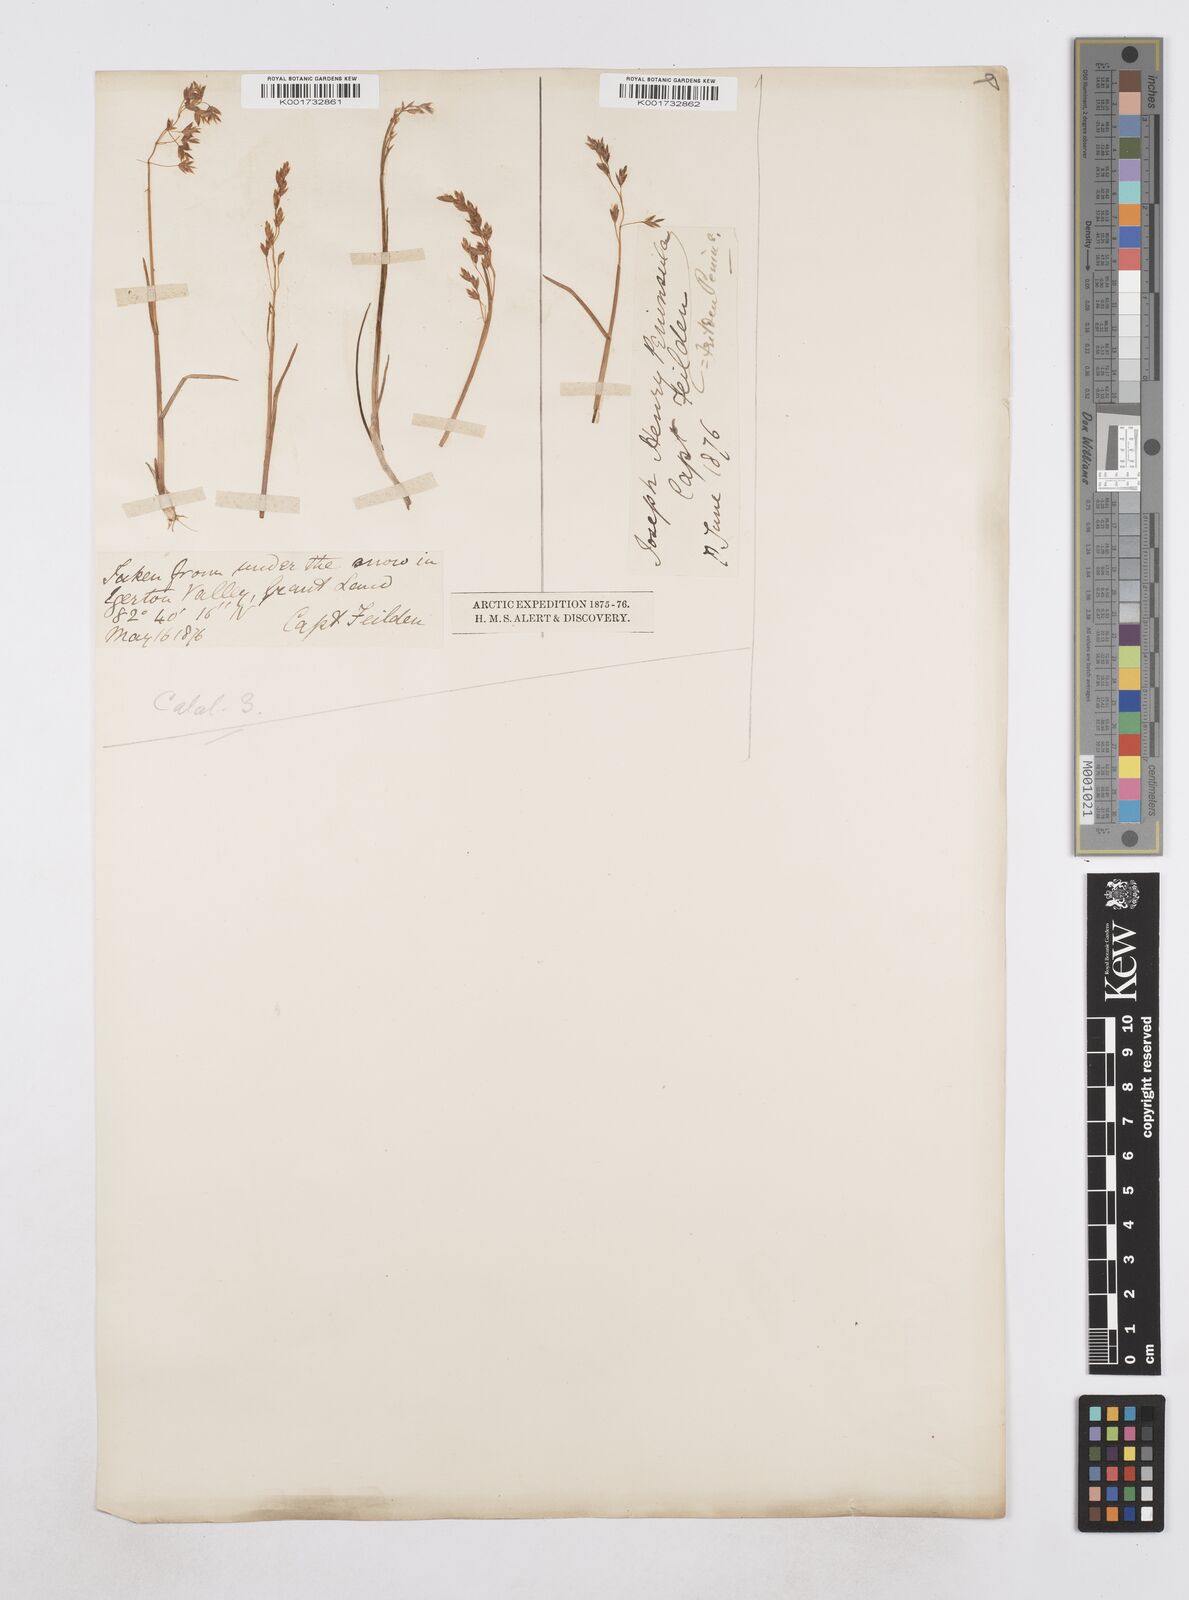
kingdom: Plantae
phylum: Tracheophyta
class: Liliopsida
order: Poales
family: Poaceae
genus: Poa
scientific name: Poa
